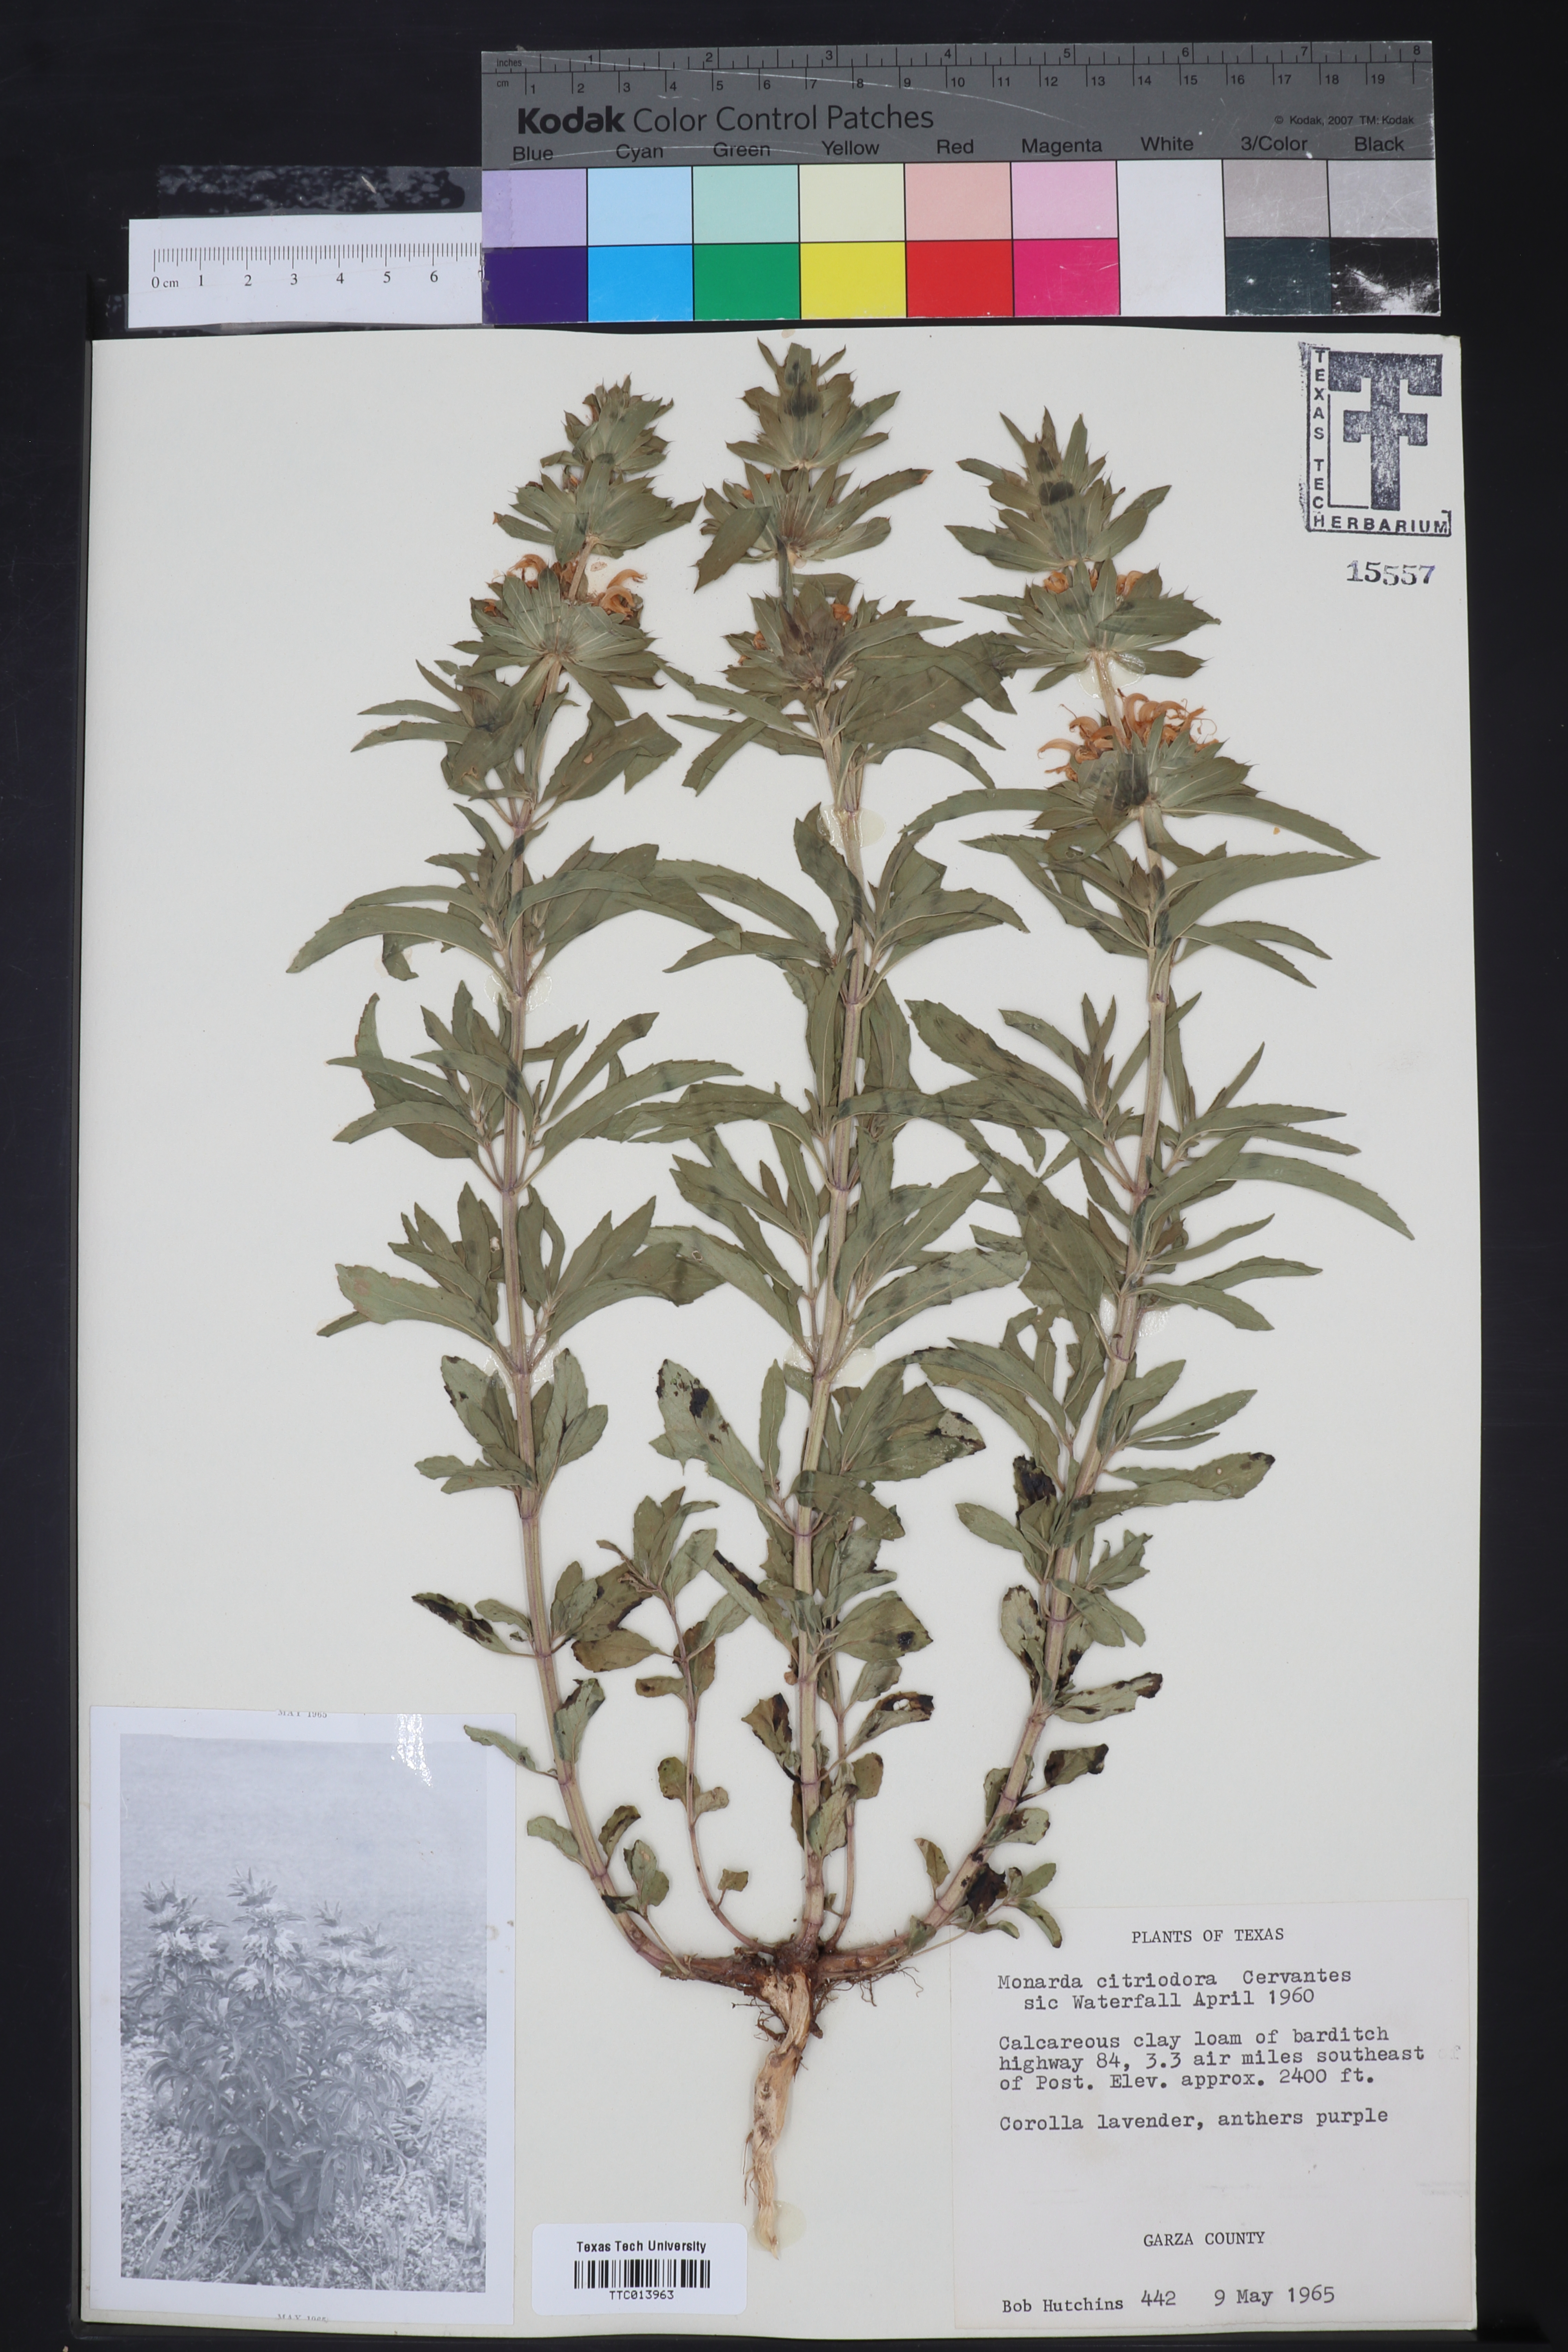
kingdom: Plantae
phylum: Tracheophyta
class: Magnoliopsida
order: Lamiales
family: Lamiaceae
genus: Monarda
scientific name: Monarda citriodora
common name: Lemon beebalm
